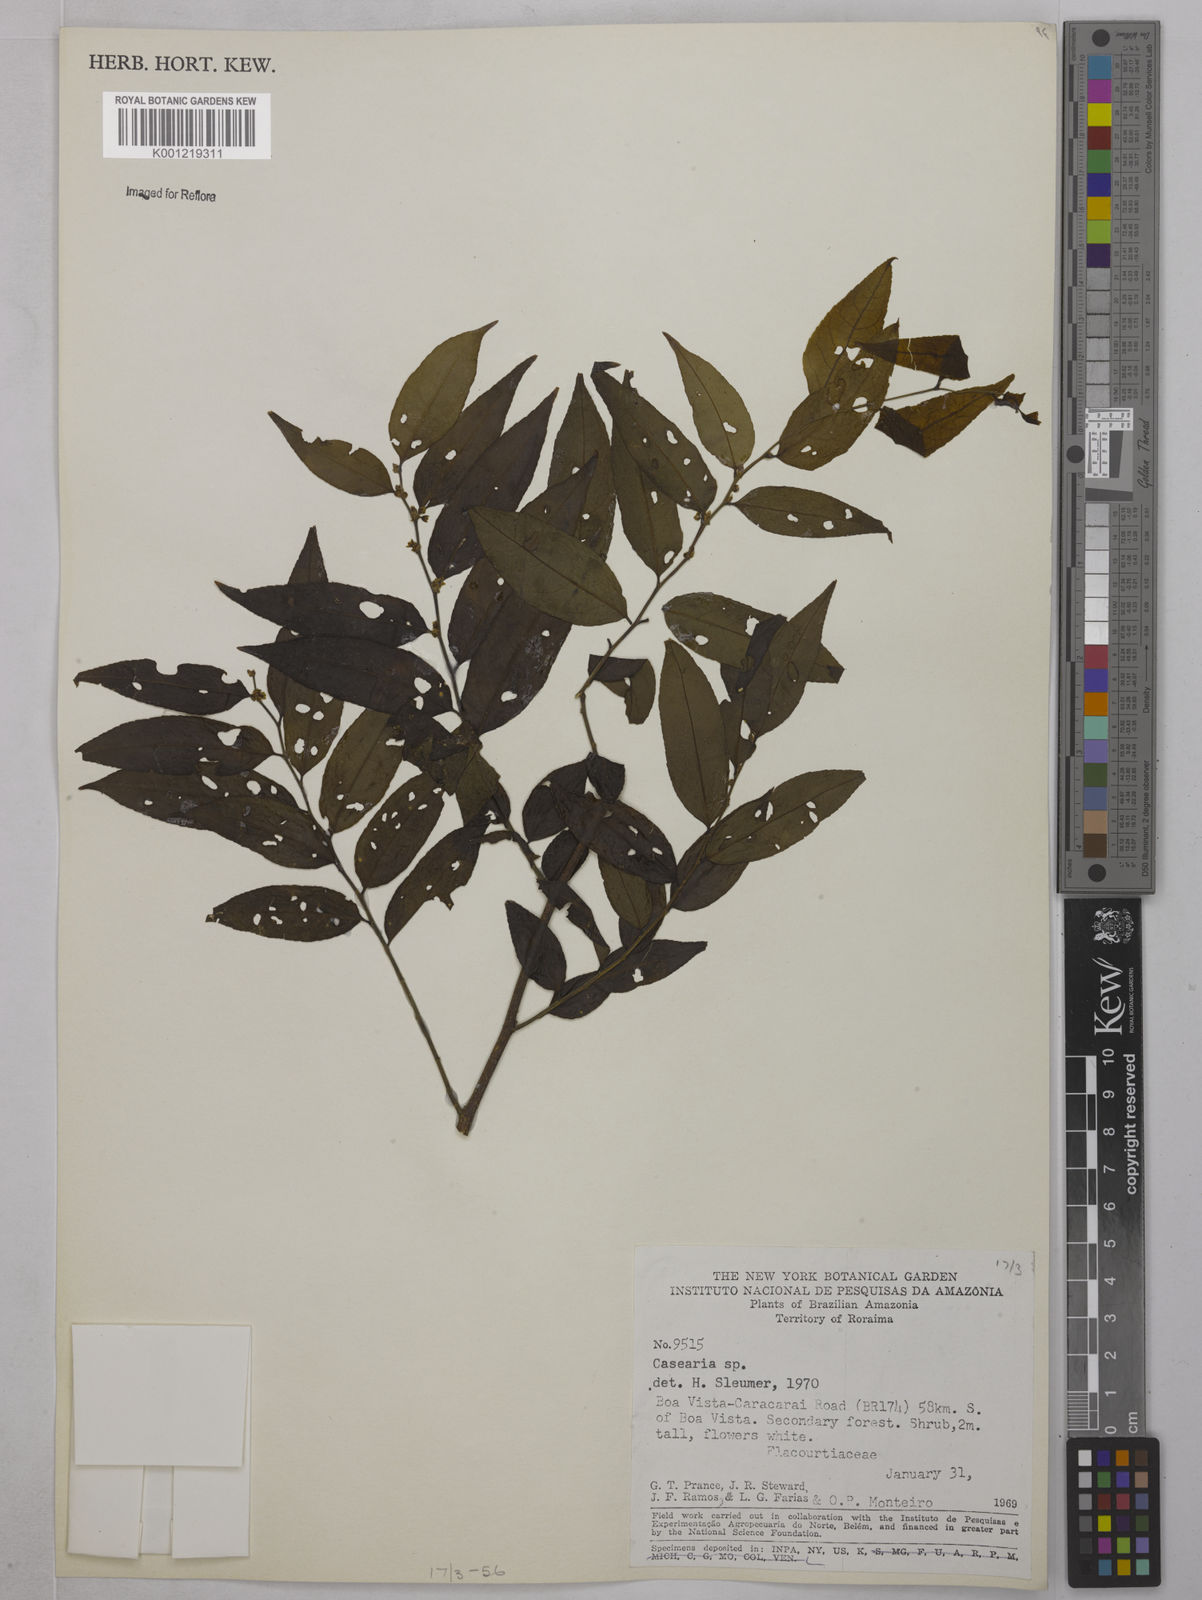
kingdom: Plantae
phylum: Tracheophyta
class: Magnoliopsida
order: Malpighiales
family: Salicaceae
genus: Casearia
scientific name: Casearia
